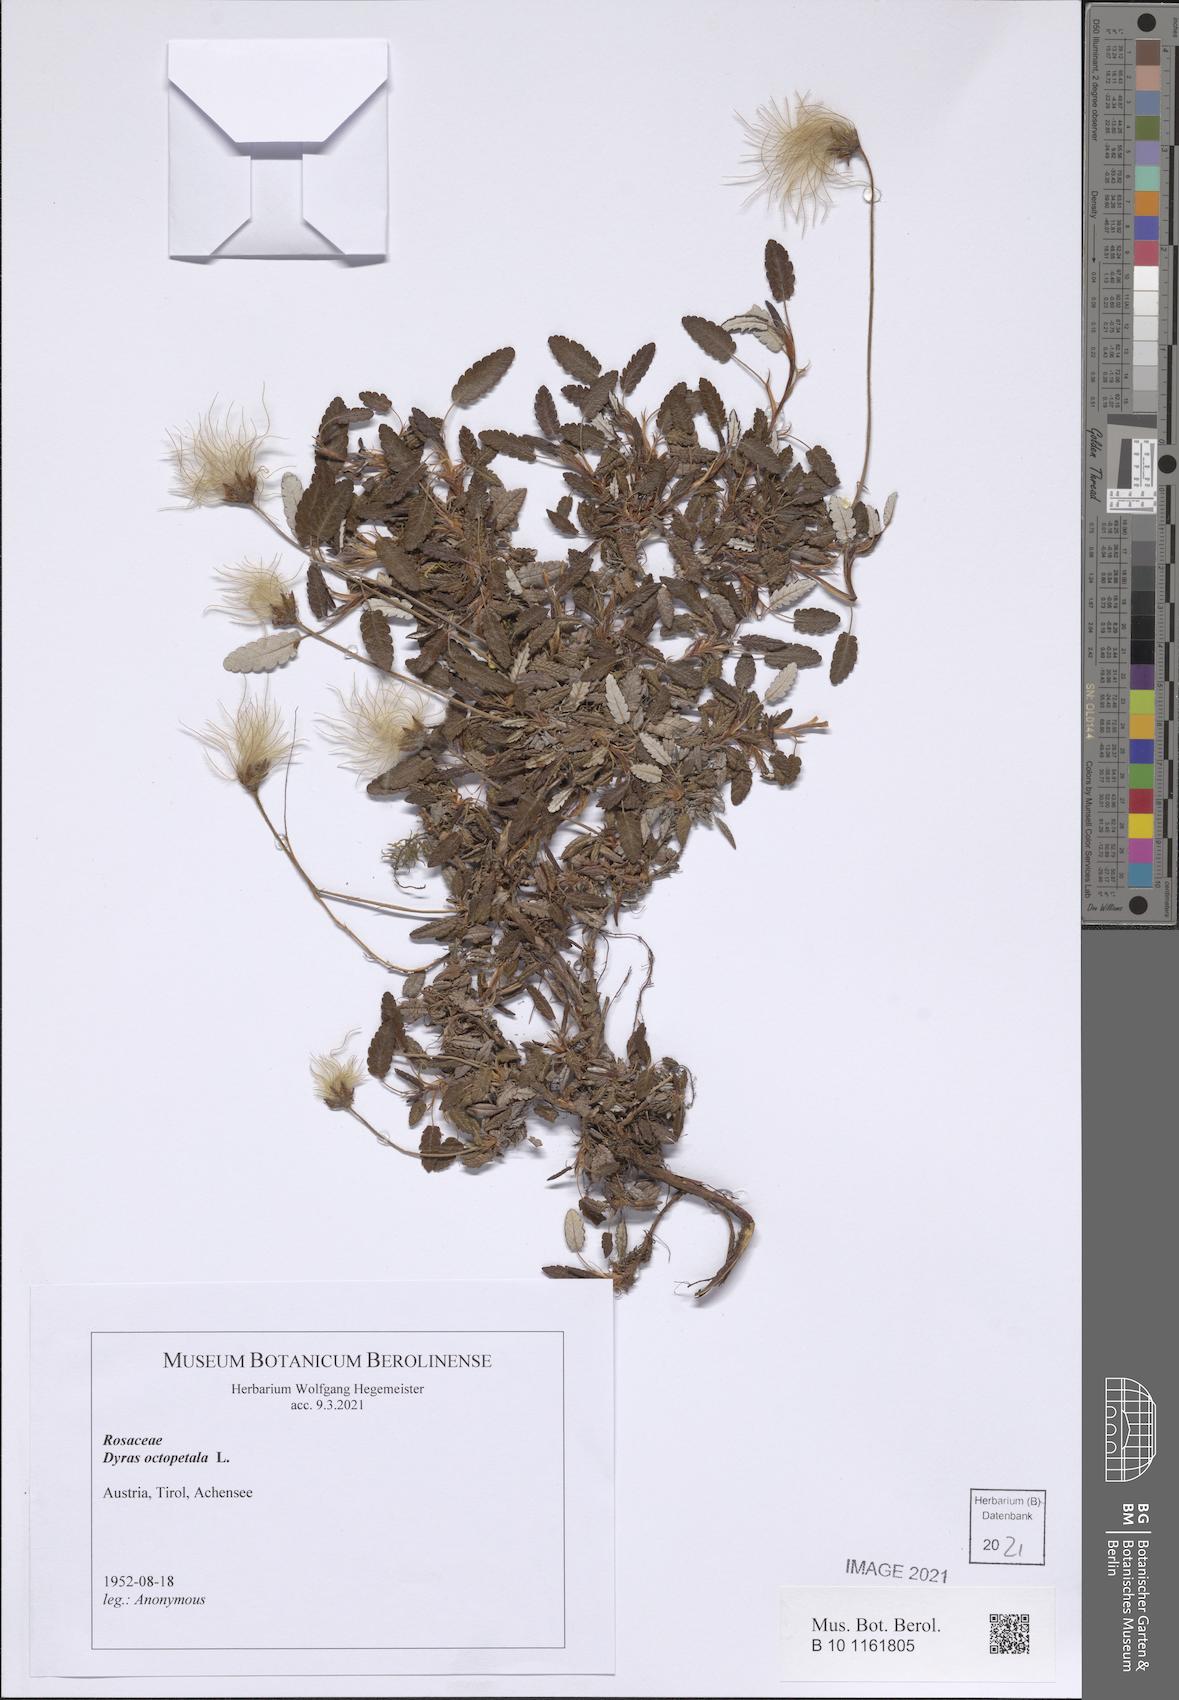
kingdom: Plantae
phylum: Tracheophyta
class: Magnoliopsida
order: Rosales
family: Rosaceae
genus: Dryas
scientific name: Dryas octopetala
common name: Eight-petal mountain-avens
